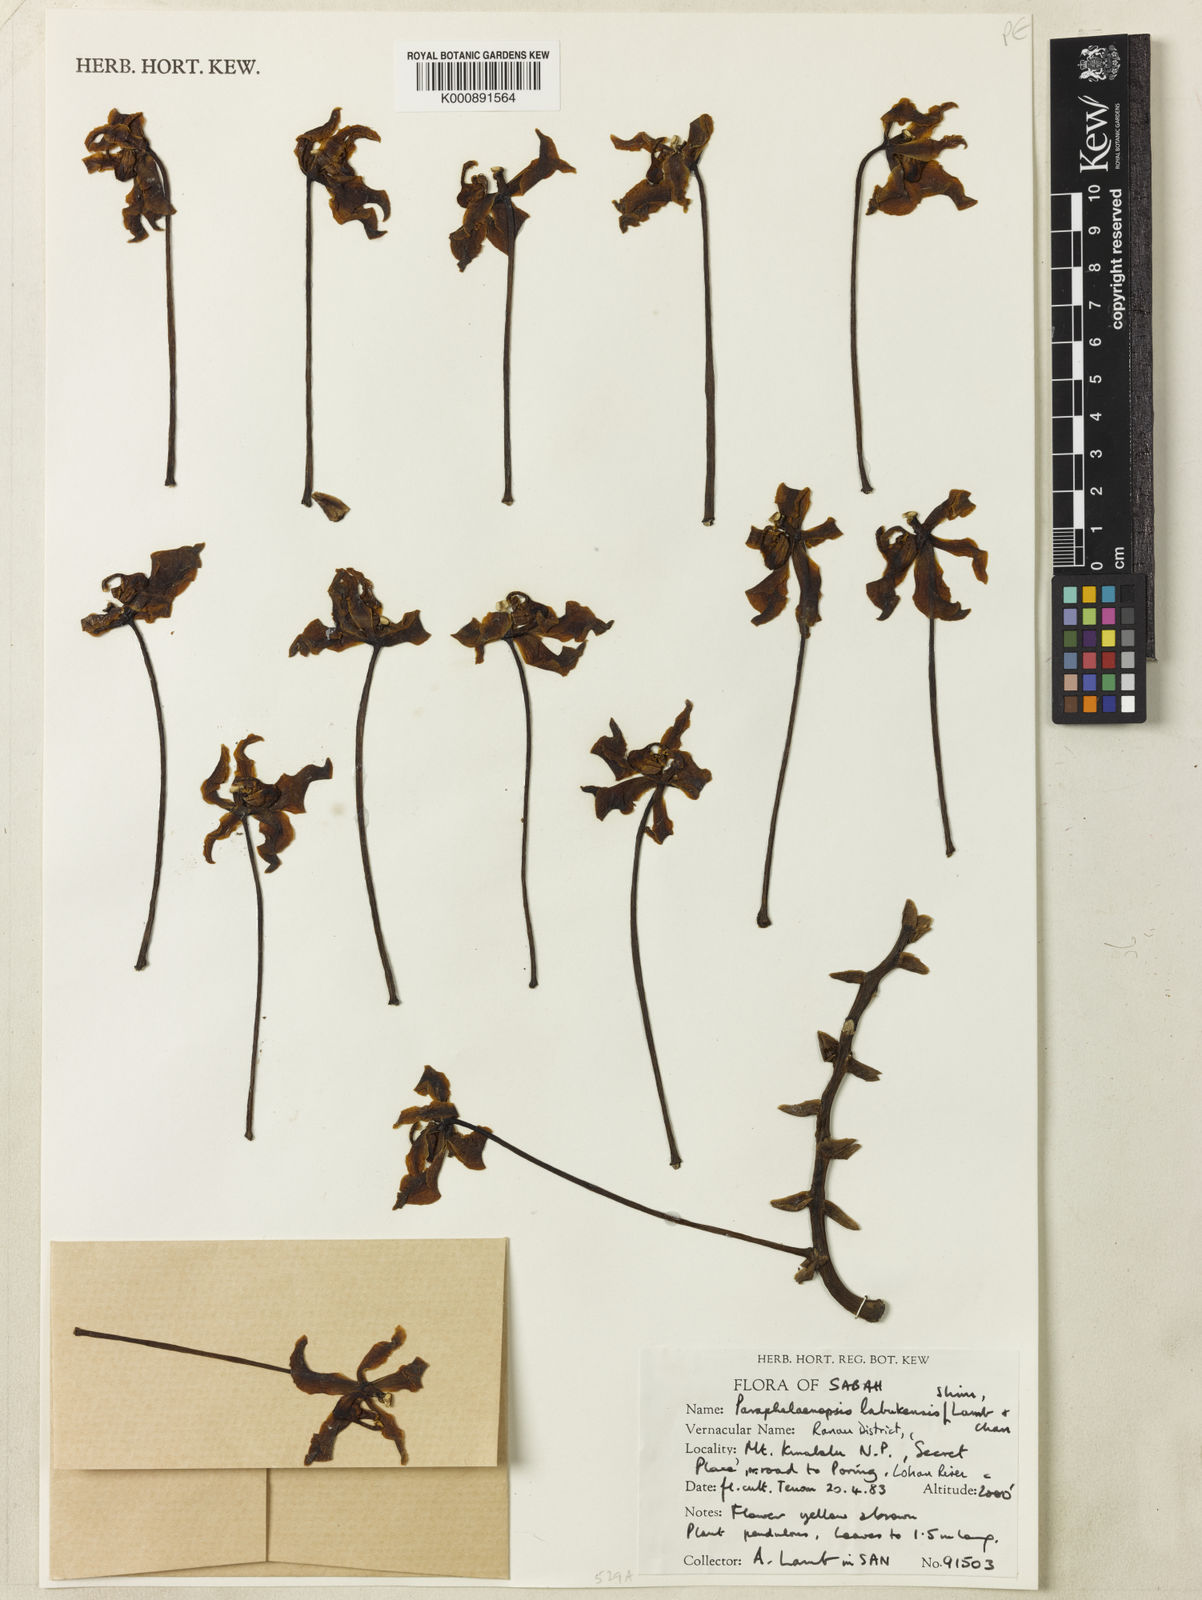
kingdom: Plantae
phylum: Tracheophyta
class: Liliopsida
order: Asparagales
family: Orchidaceae
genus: Paraphalaenopsis
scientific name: Paraphalaenopsis labukensis
